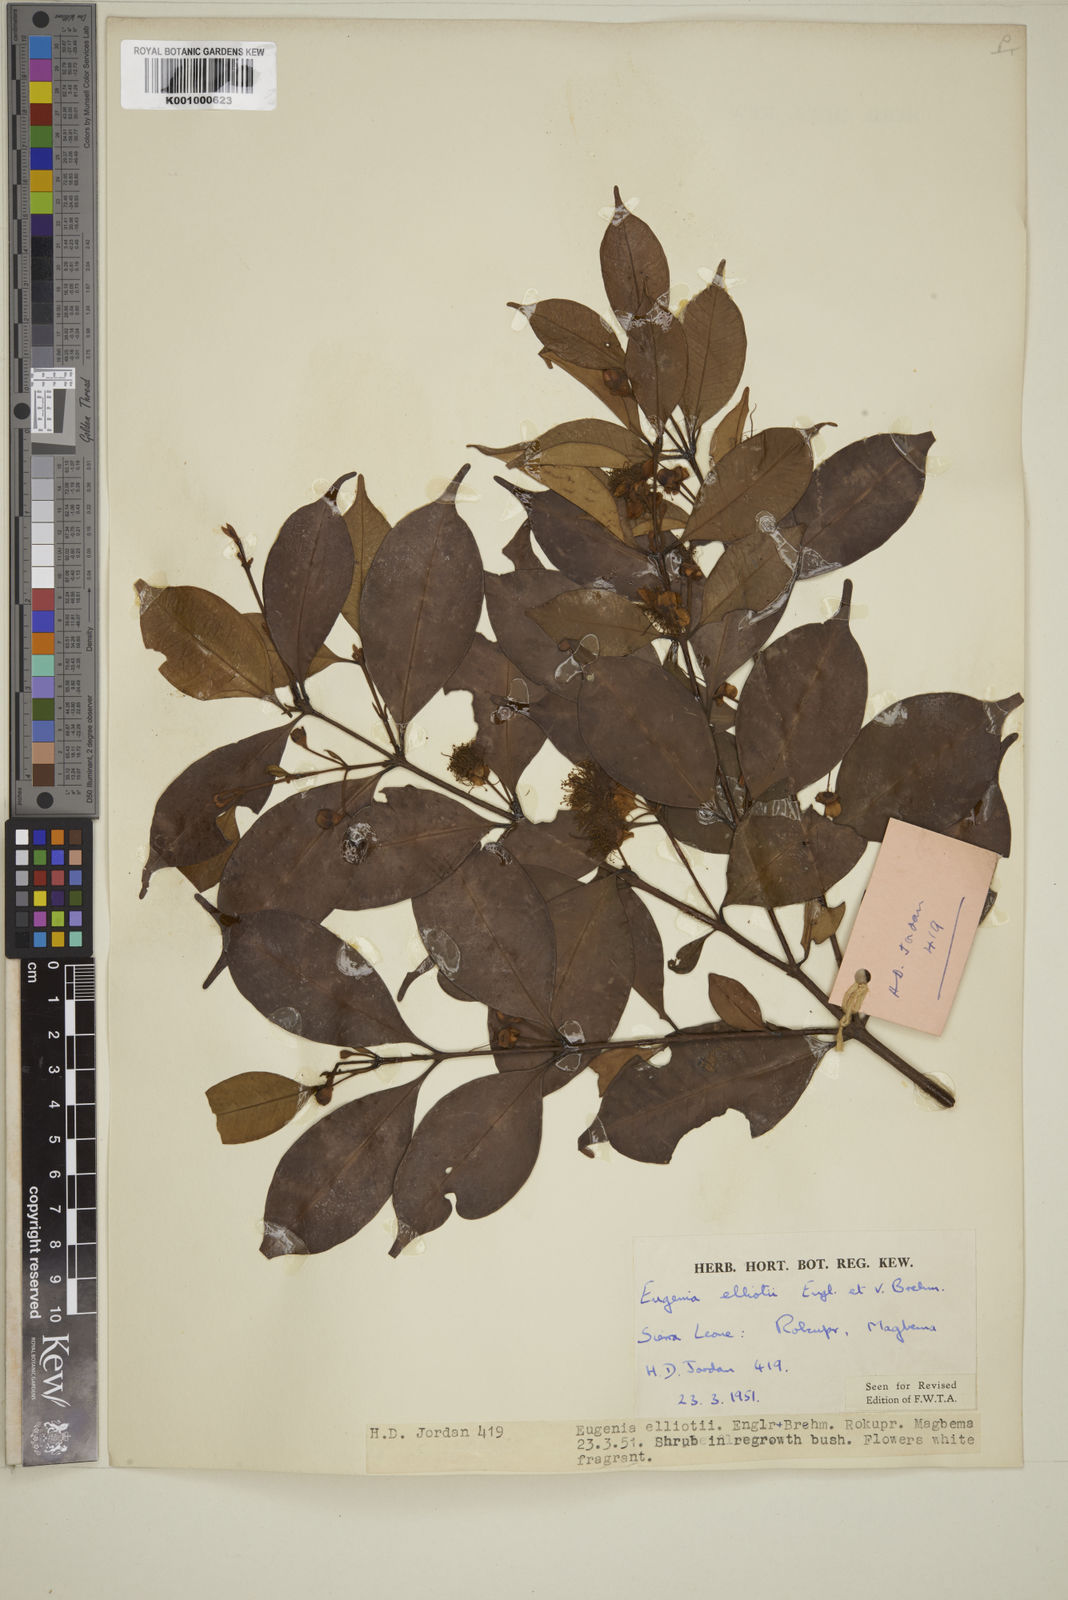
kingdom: Plantae
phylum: Tracheophyta
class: Magnoliopsida
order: Myrtales
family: Myrtaceae
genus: Eugenia
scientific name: Eugenia elliotii
